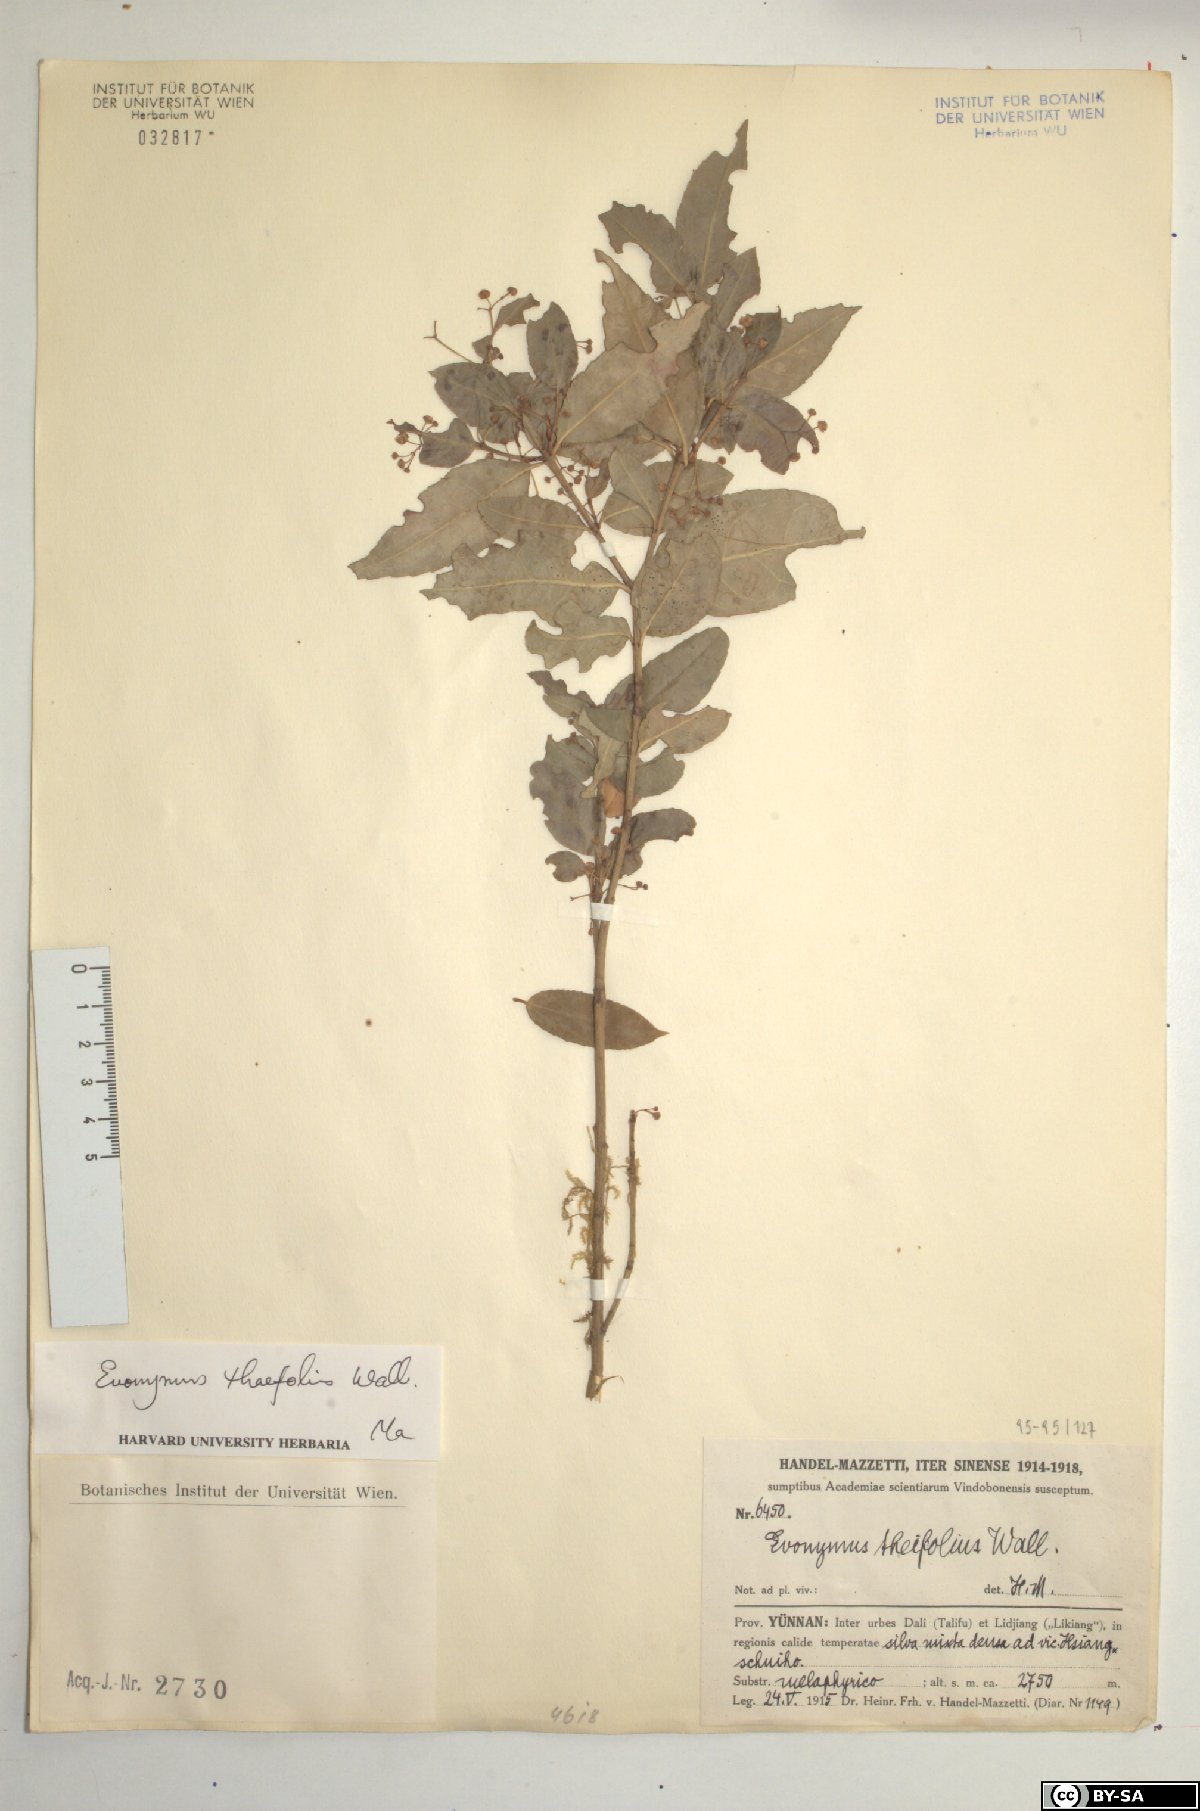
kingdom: Plantae
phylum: Tracheophyta
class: Magnoliopsida
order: Celastrales
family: Celastraceae
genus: Euonymus
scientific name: Euonymus theifolius
